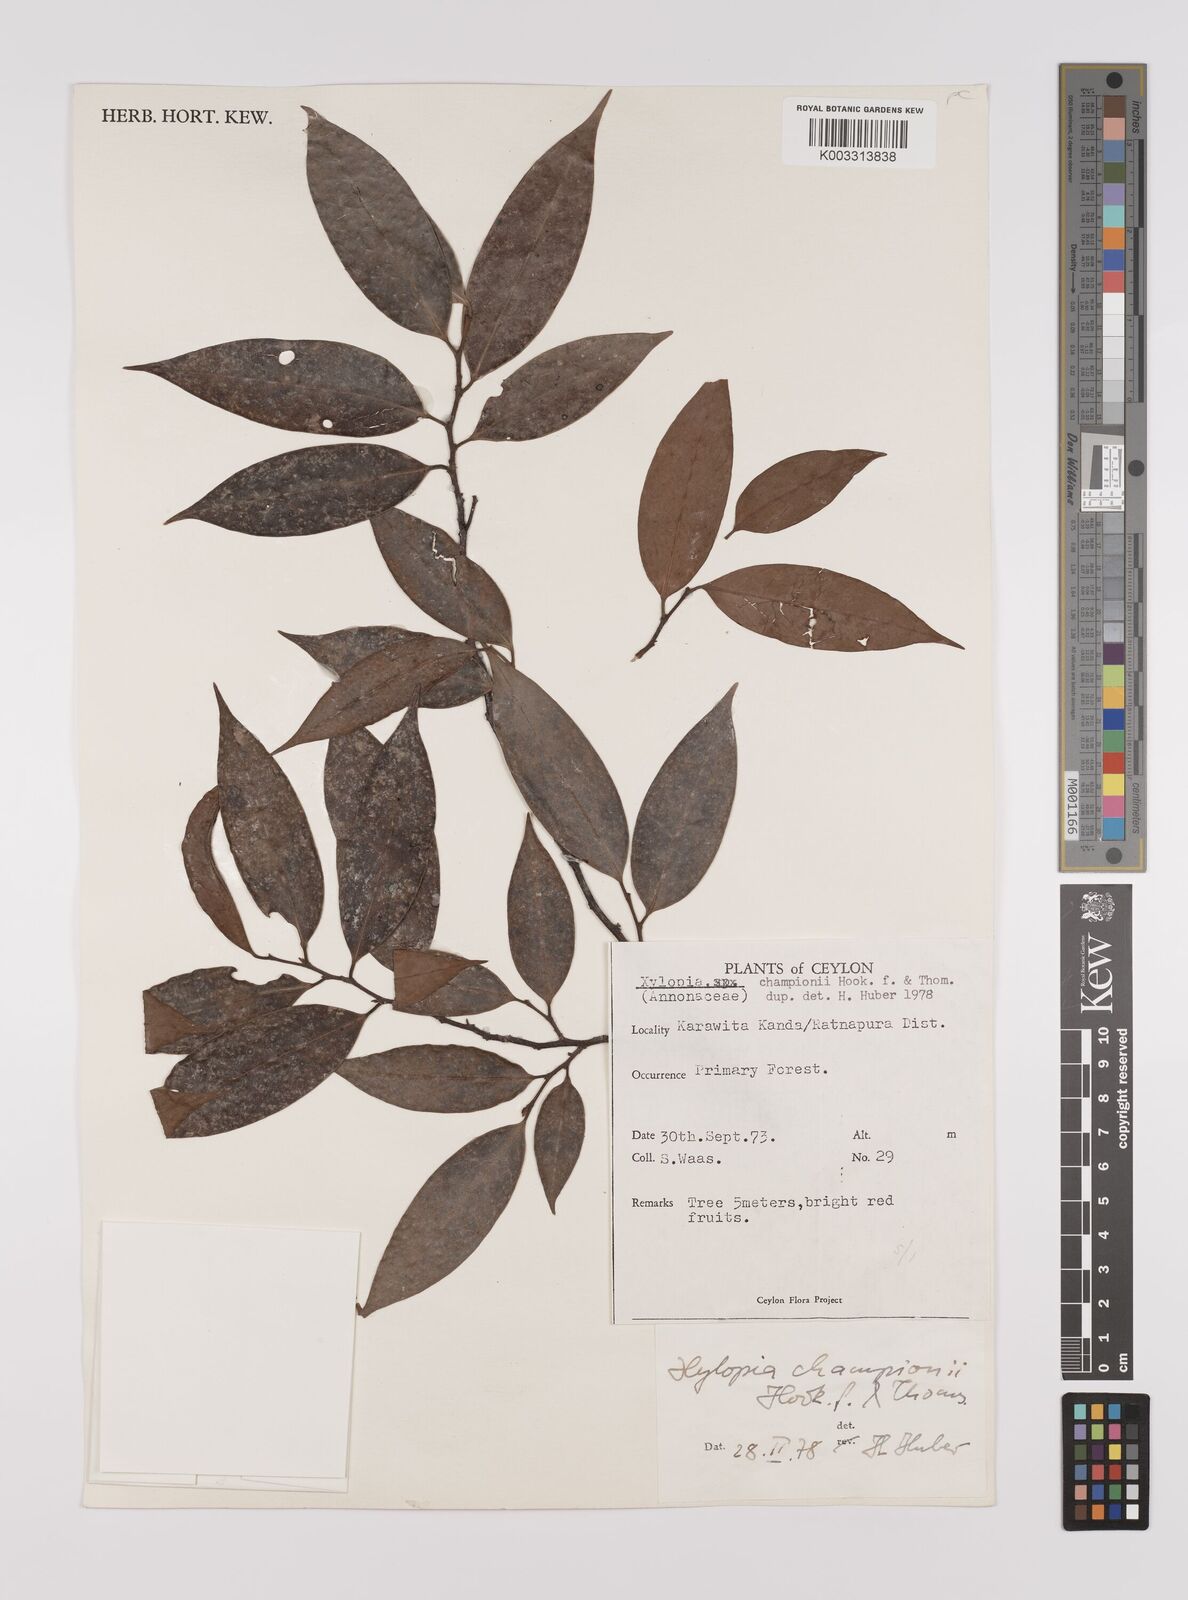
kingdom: Plantae
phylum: Tracheophyta
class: Magnoliopsida
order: Magnoliales
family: Annonaceae
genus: Xylopia
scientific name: Xylopia championii
